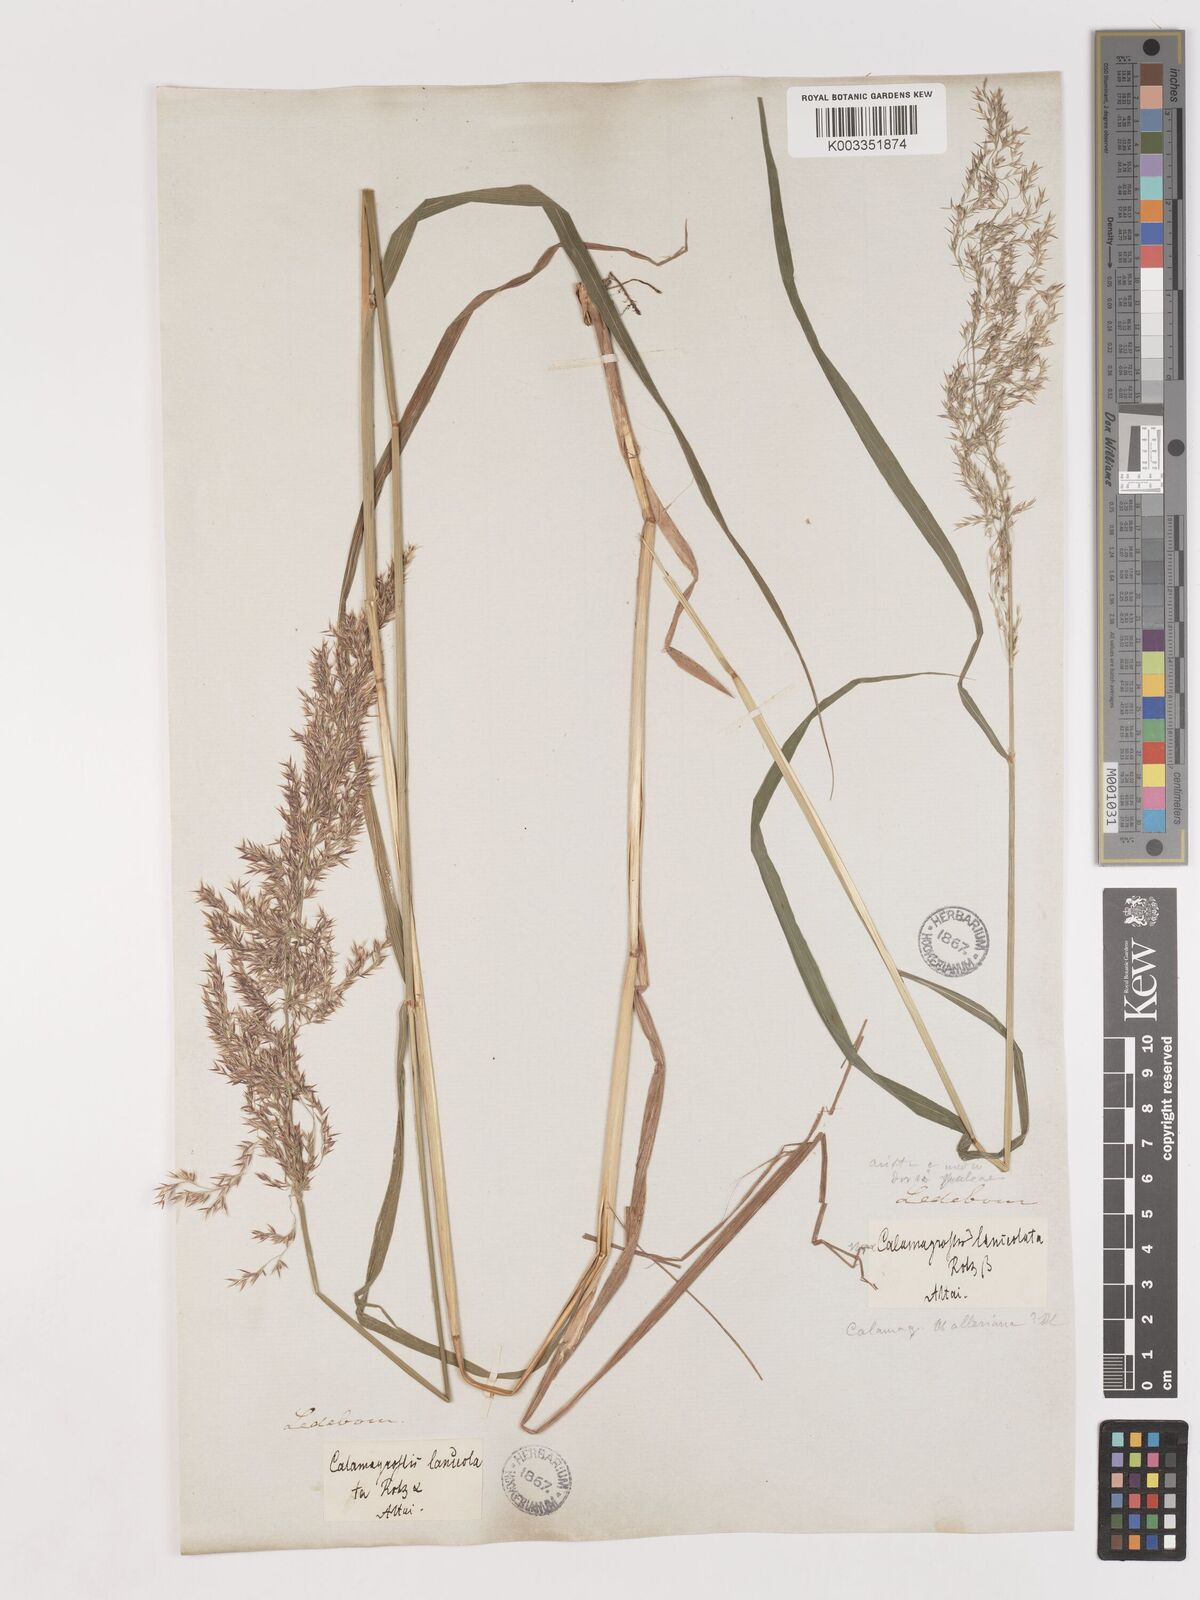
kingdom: Plantae
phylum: Tracheophyta
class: Liliopsida
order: Poales
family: Poaceae
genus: Calamagrostis
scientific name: Calamagrostis canescens
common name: Purple small-reed
